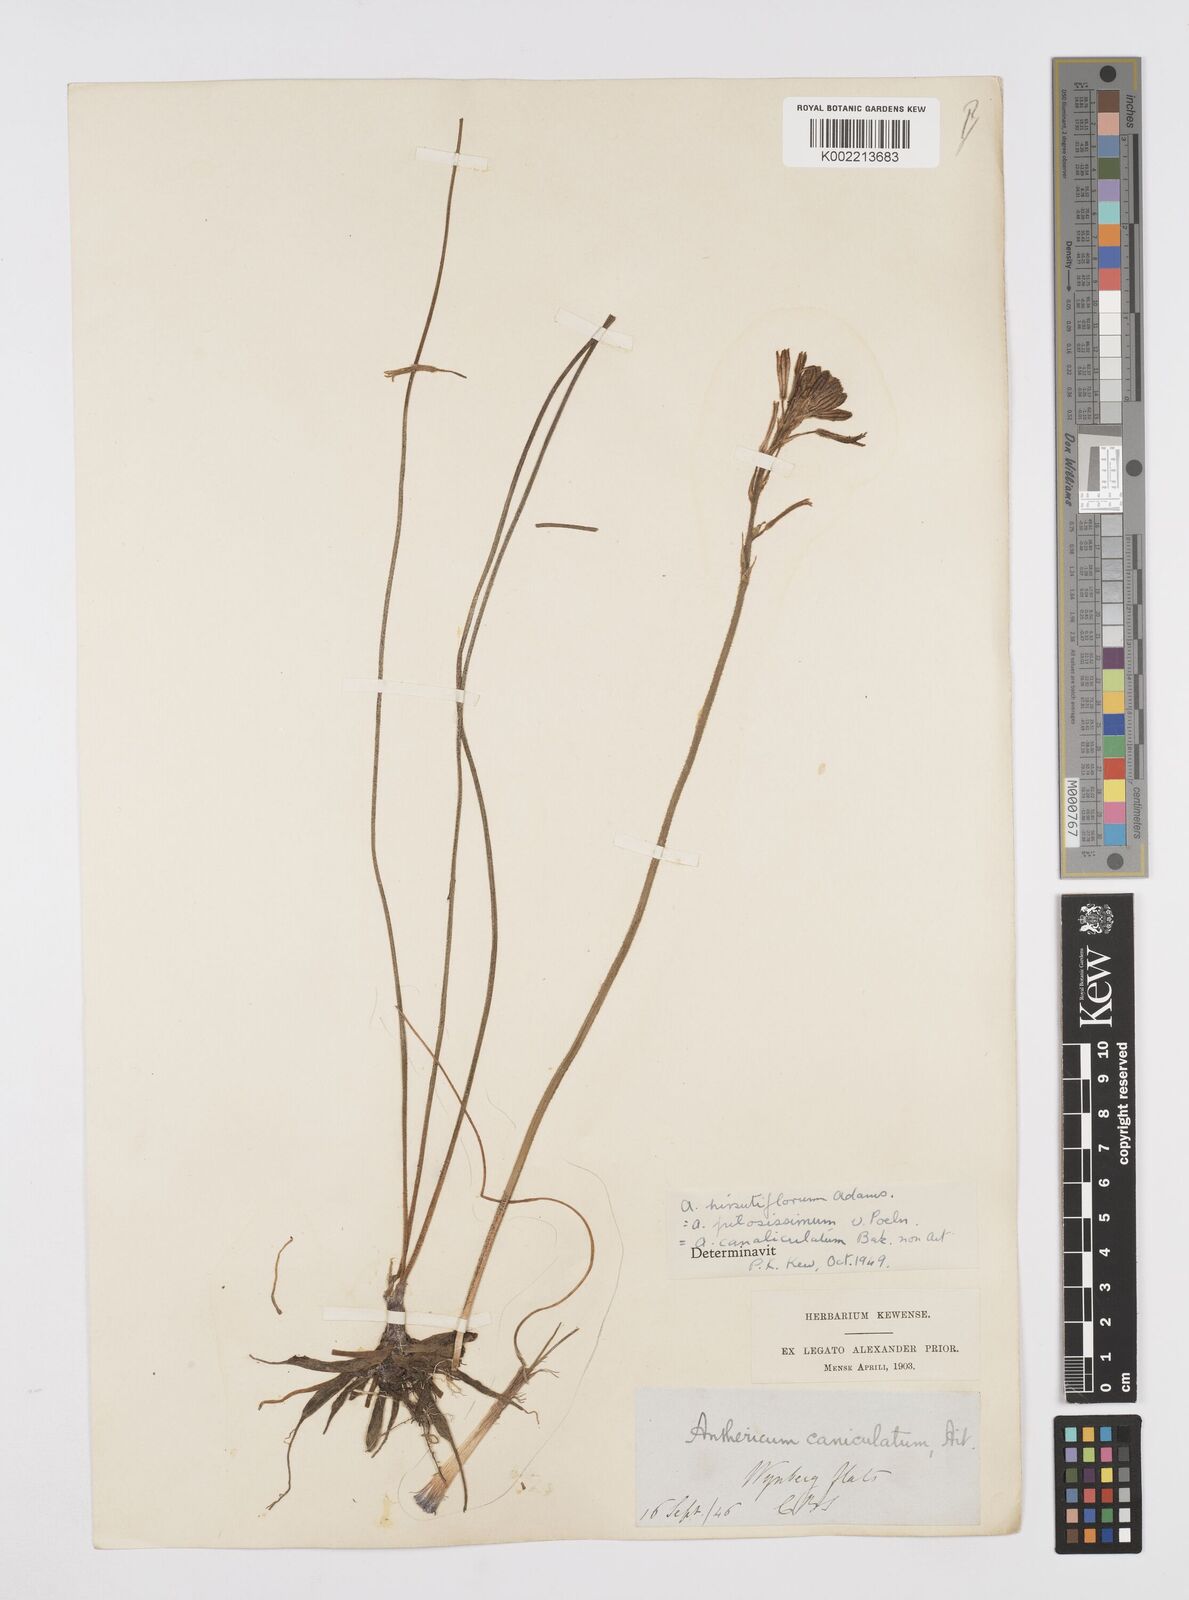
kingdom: Plantae
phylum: Tracheophyta
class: Liliopsida
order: Asparagales
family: Asphodelaceae
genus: Trachyandra
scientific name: Trachyandra hirsutiflora
